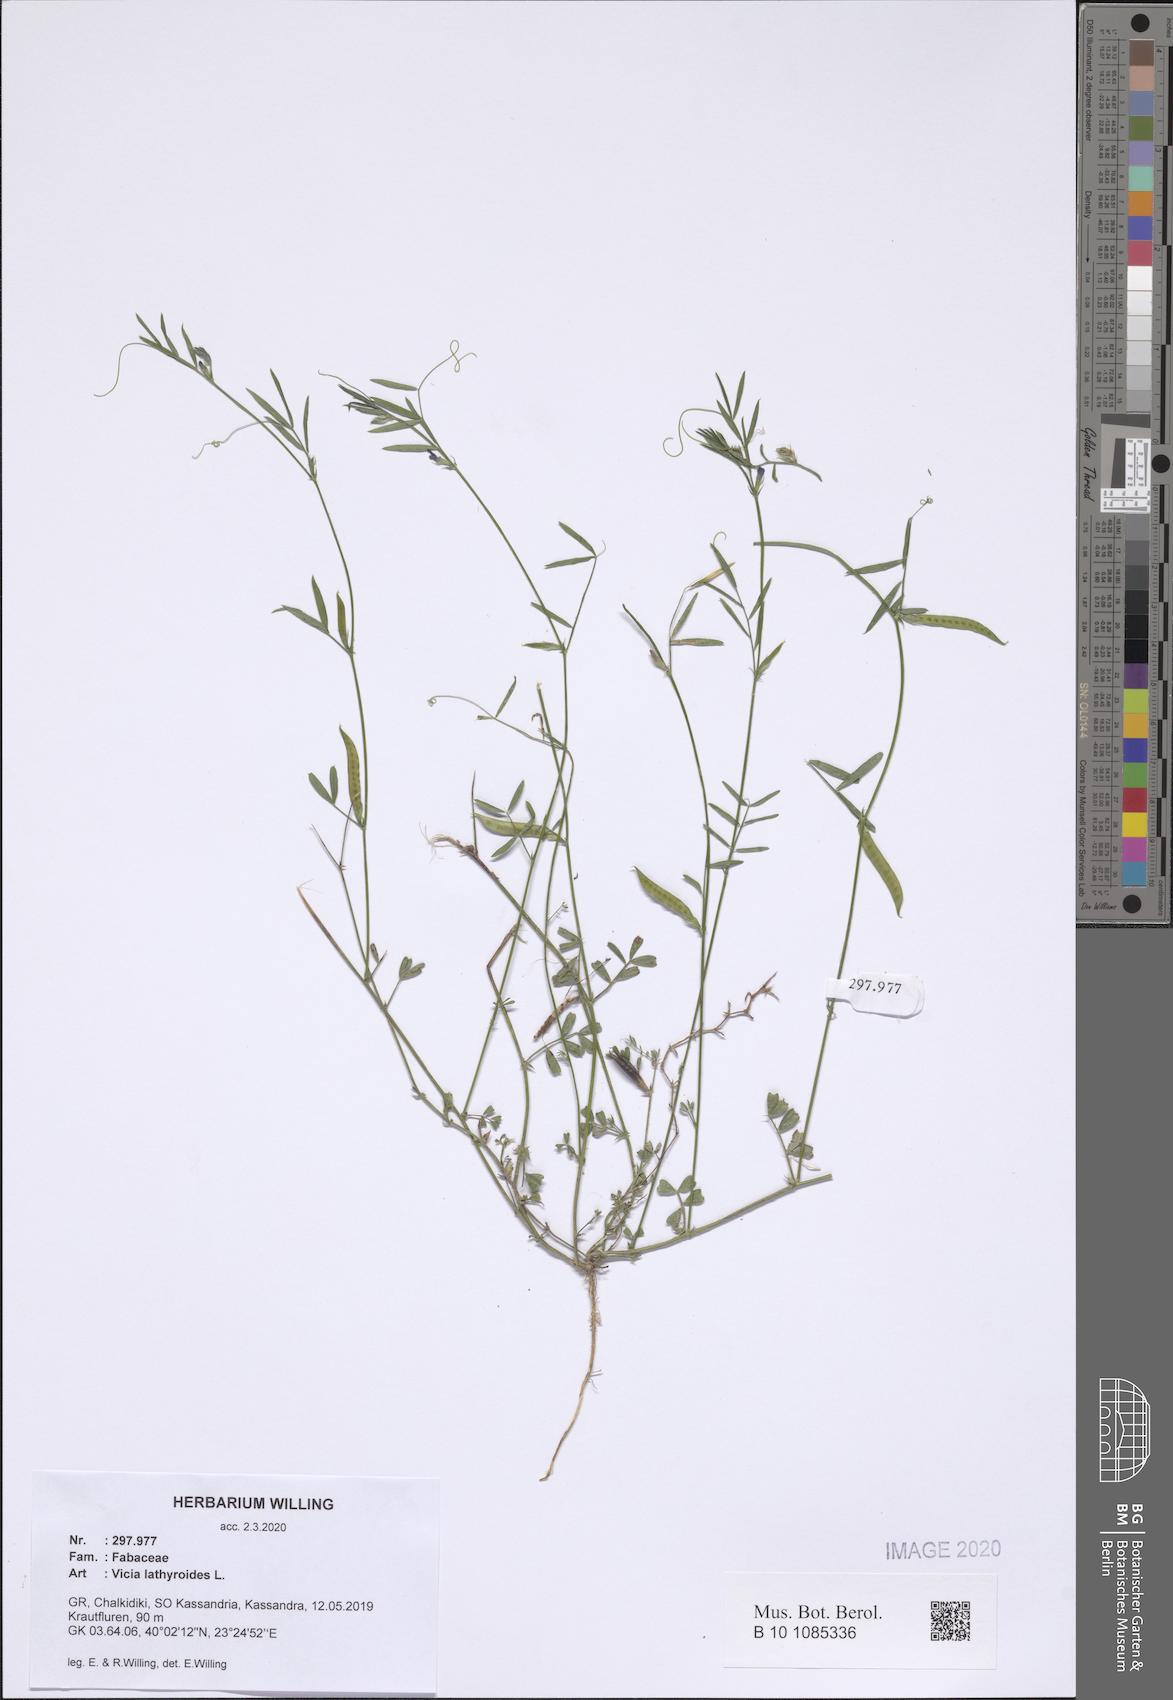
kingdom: Plantae
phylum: Tracheophyta
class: Magnoliopsida
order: Fabales
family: Fabaceae
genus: Vicia
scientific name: Vicia lathyroides
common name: Spring vetch
